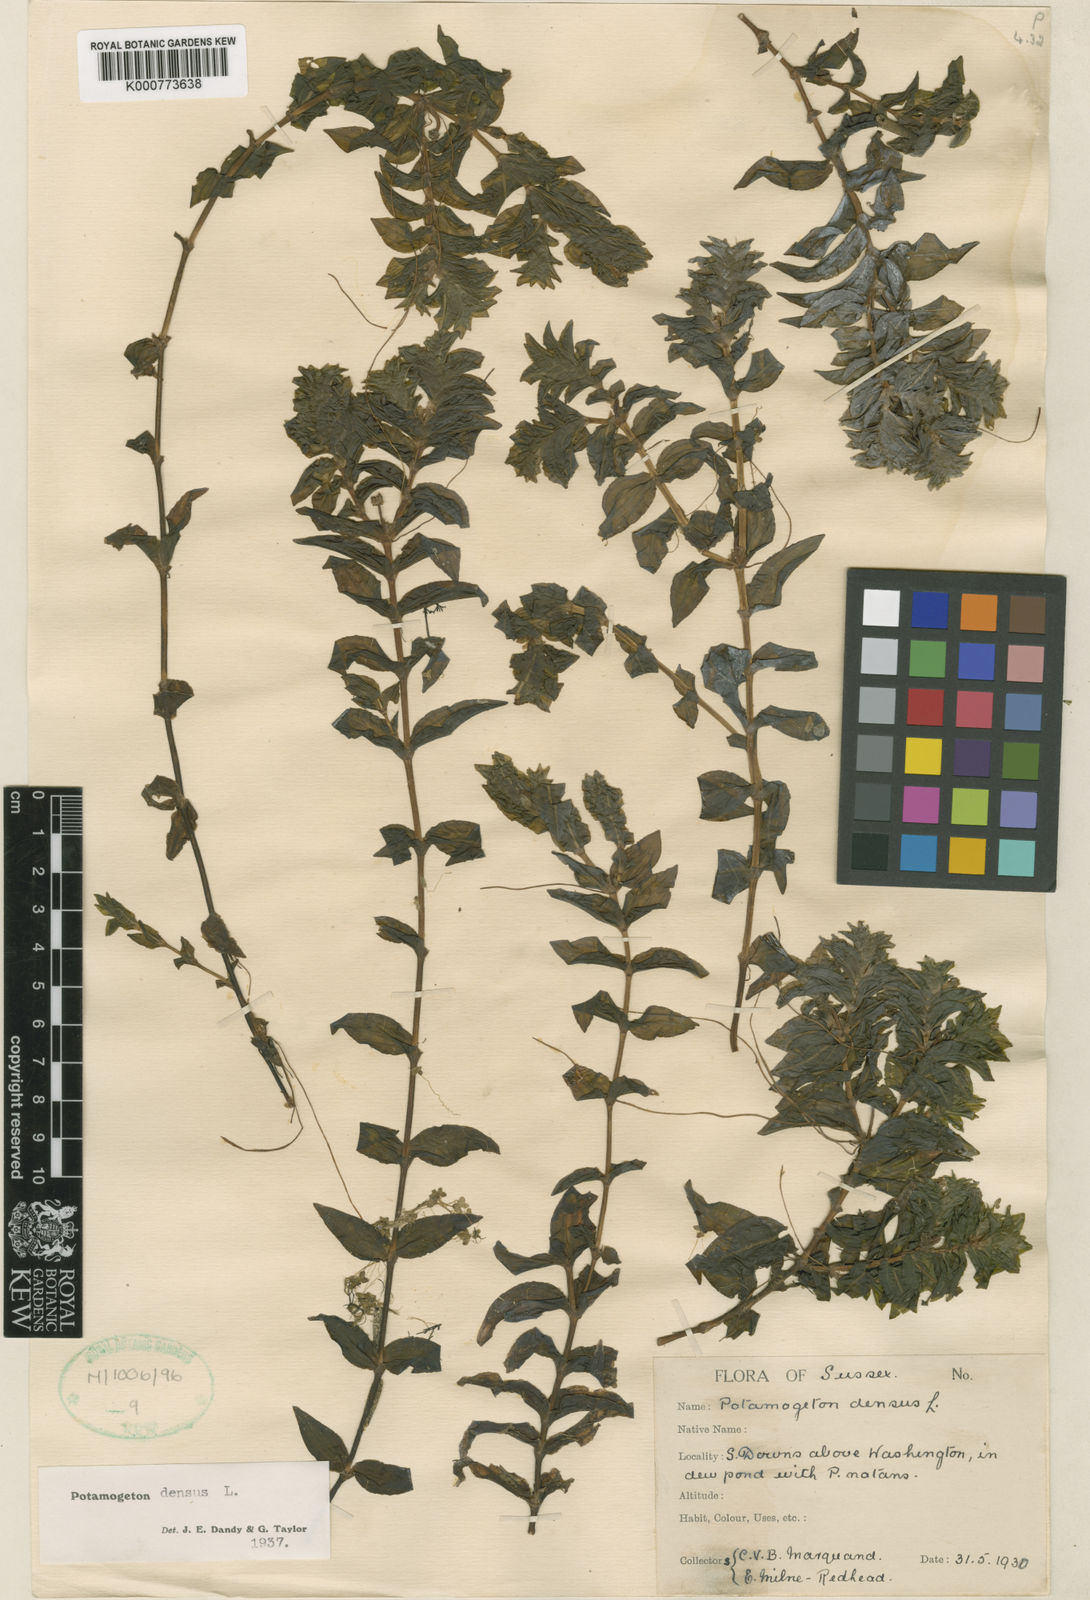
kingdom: Plantae
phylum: Tracheophyta
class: Liliopsida
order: Alismatales
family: Potamogetonaceae
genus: Groenlandia
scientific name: Groenlandia densa
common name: Opposite-leaved pondweed
